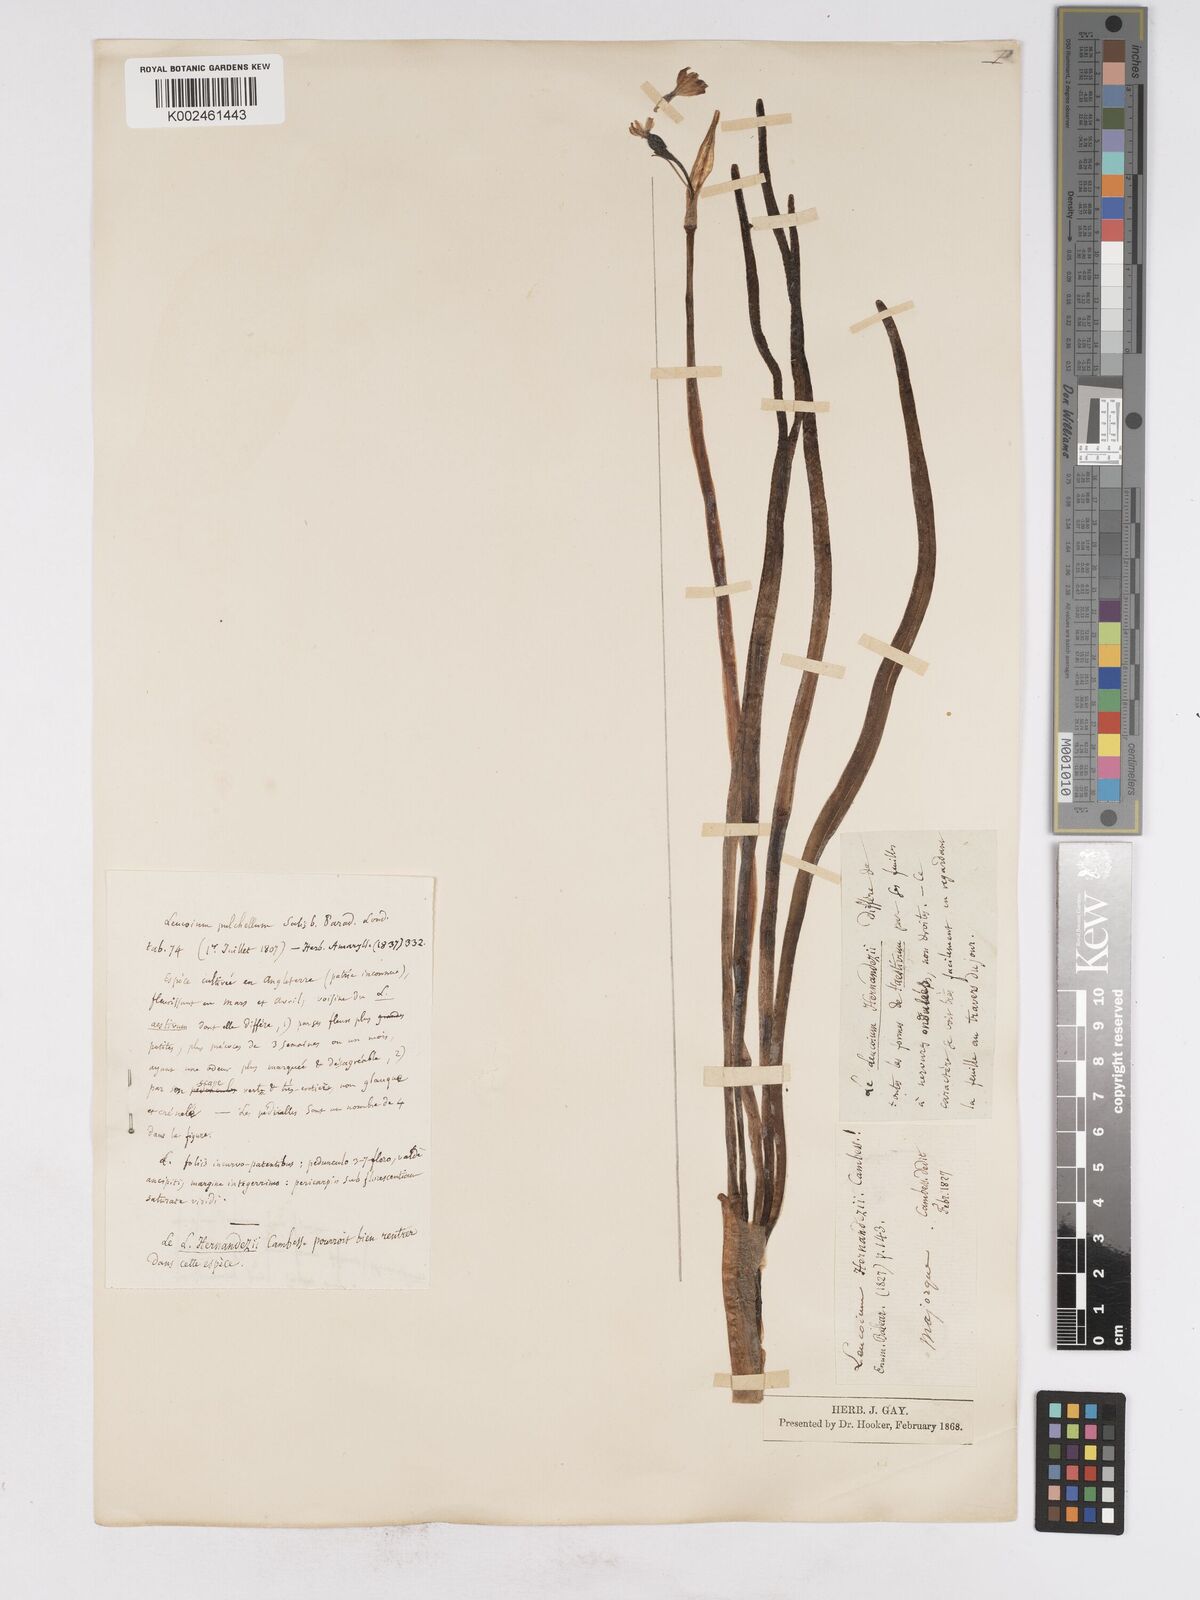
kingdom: Plantae
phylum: Tracheophyta
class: Liliopsida
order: Asparagales
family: Amaryllidaceae
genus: Leucojum
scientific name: Leucojum aestivum
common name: Summer snowflake
